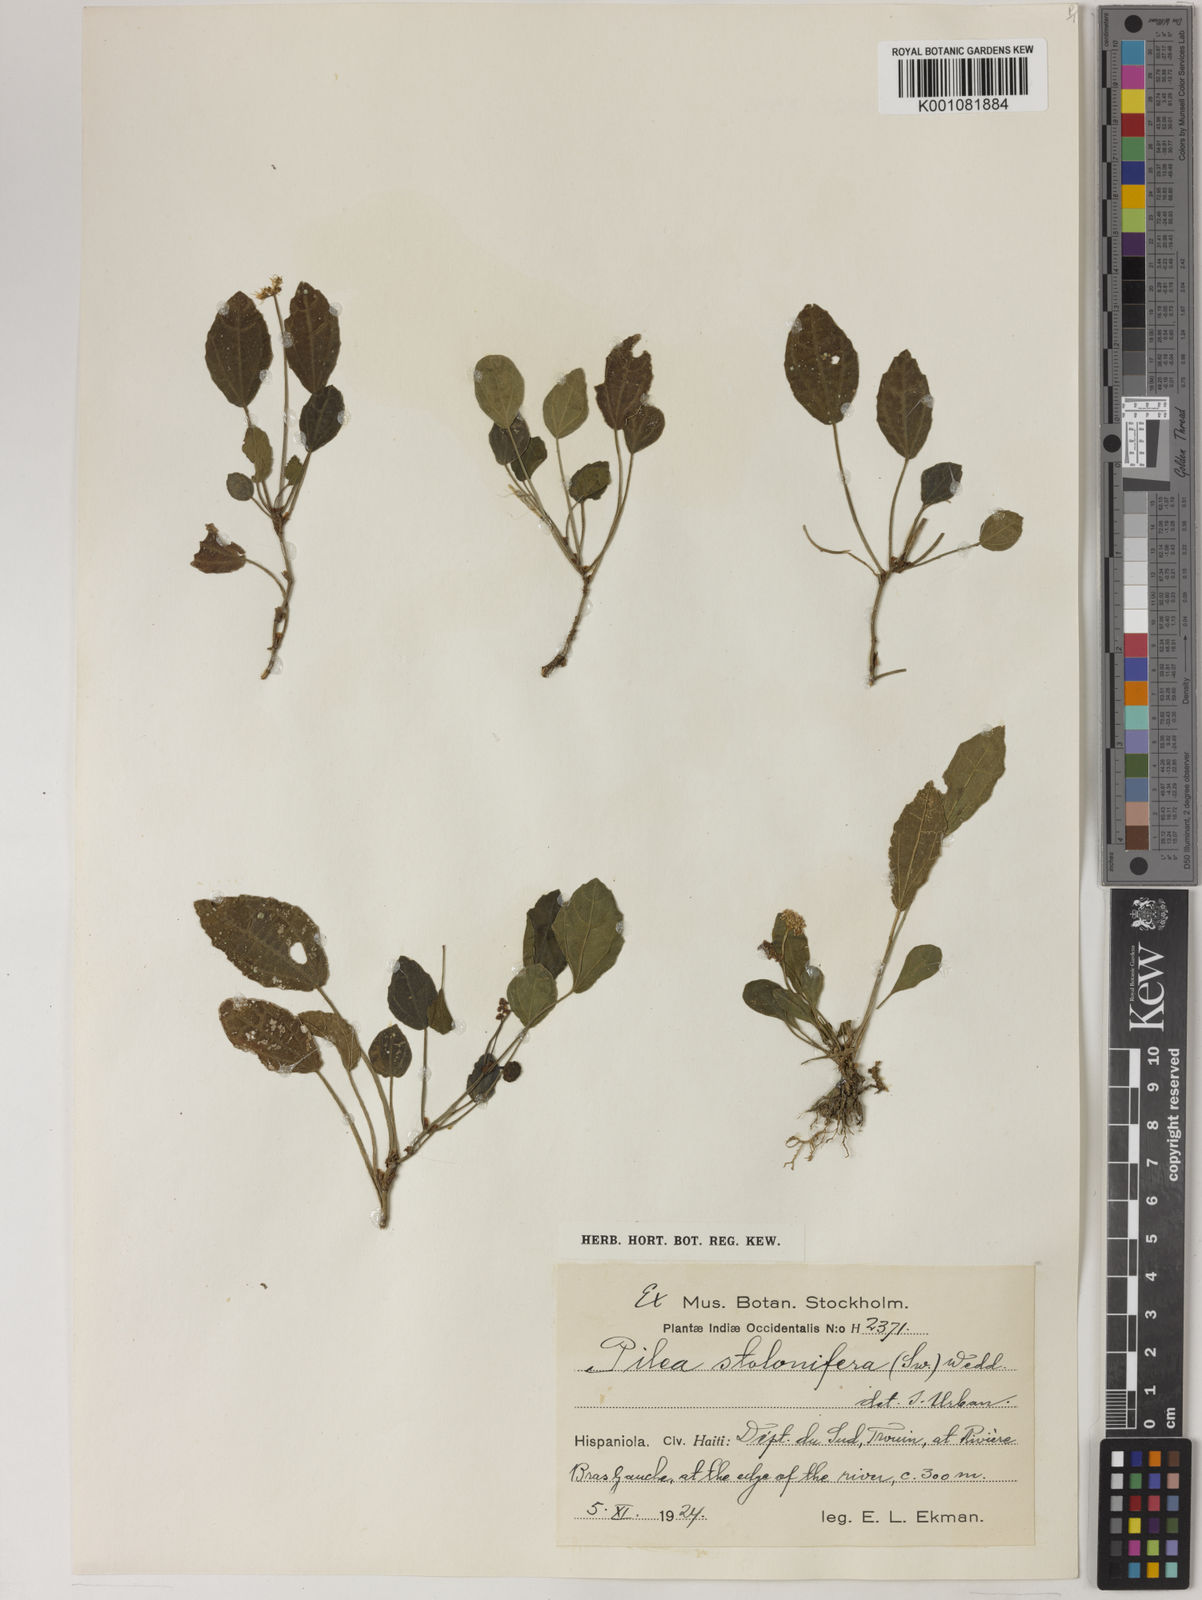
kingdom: Plantae
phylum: Tracheophyta
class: Magnoliopsida
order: Rosales
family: Urticaceae
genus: Pilea
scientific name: Pilea stolonifera
